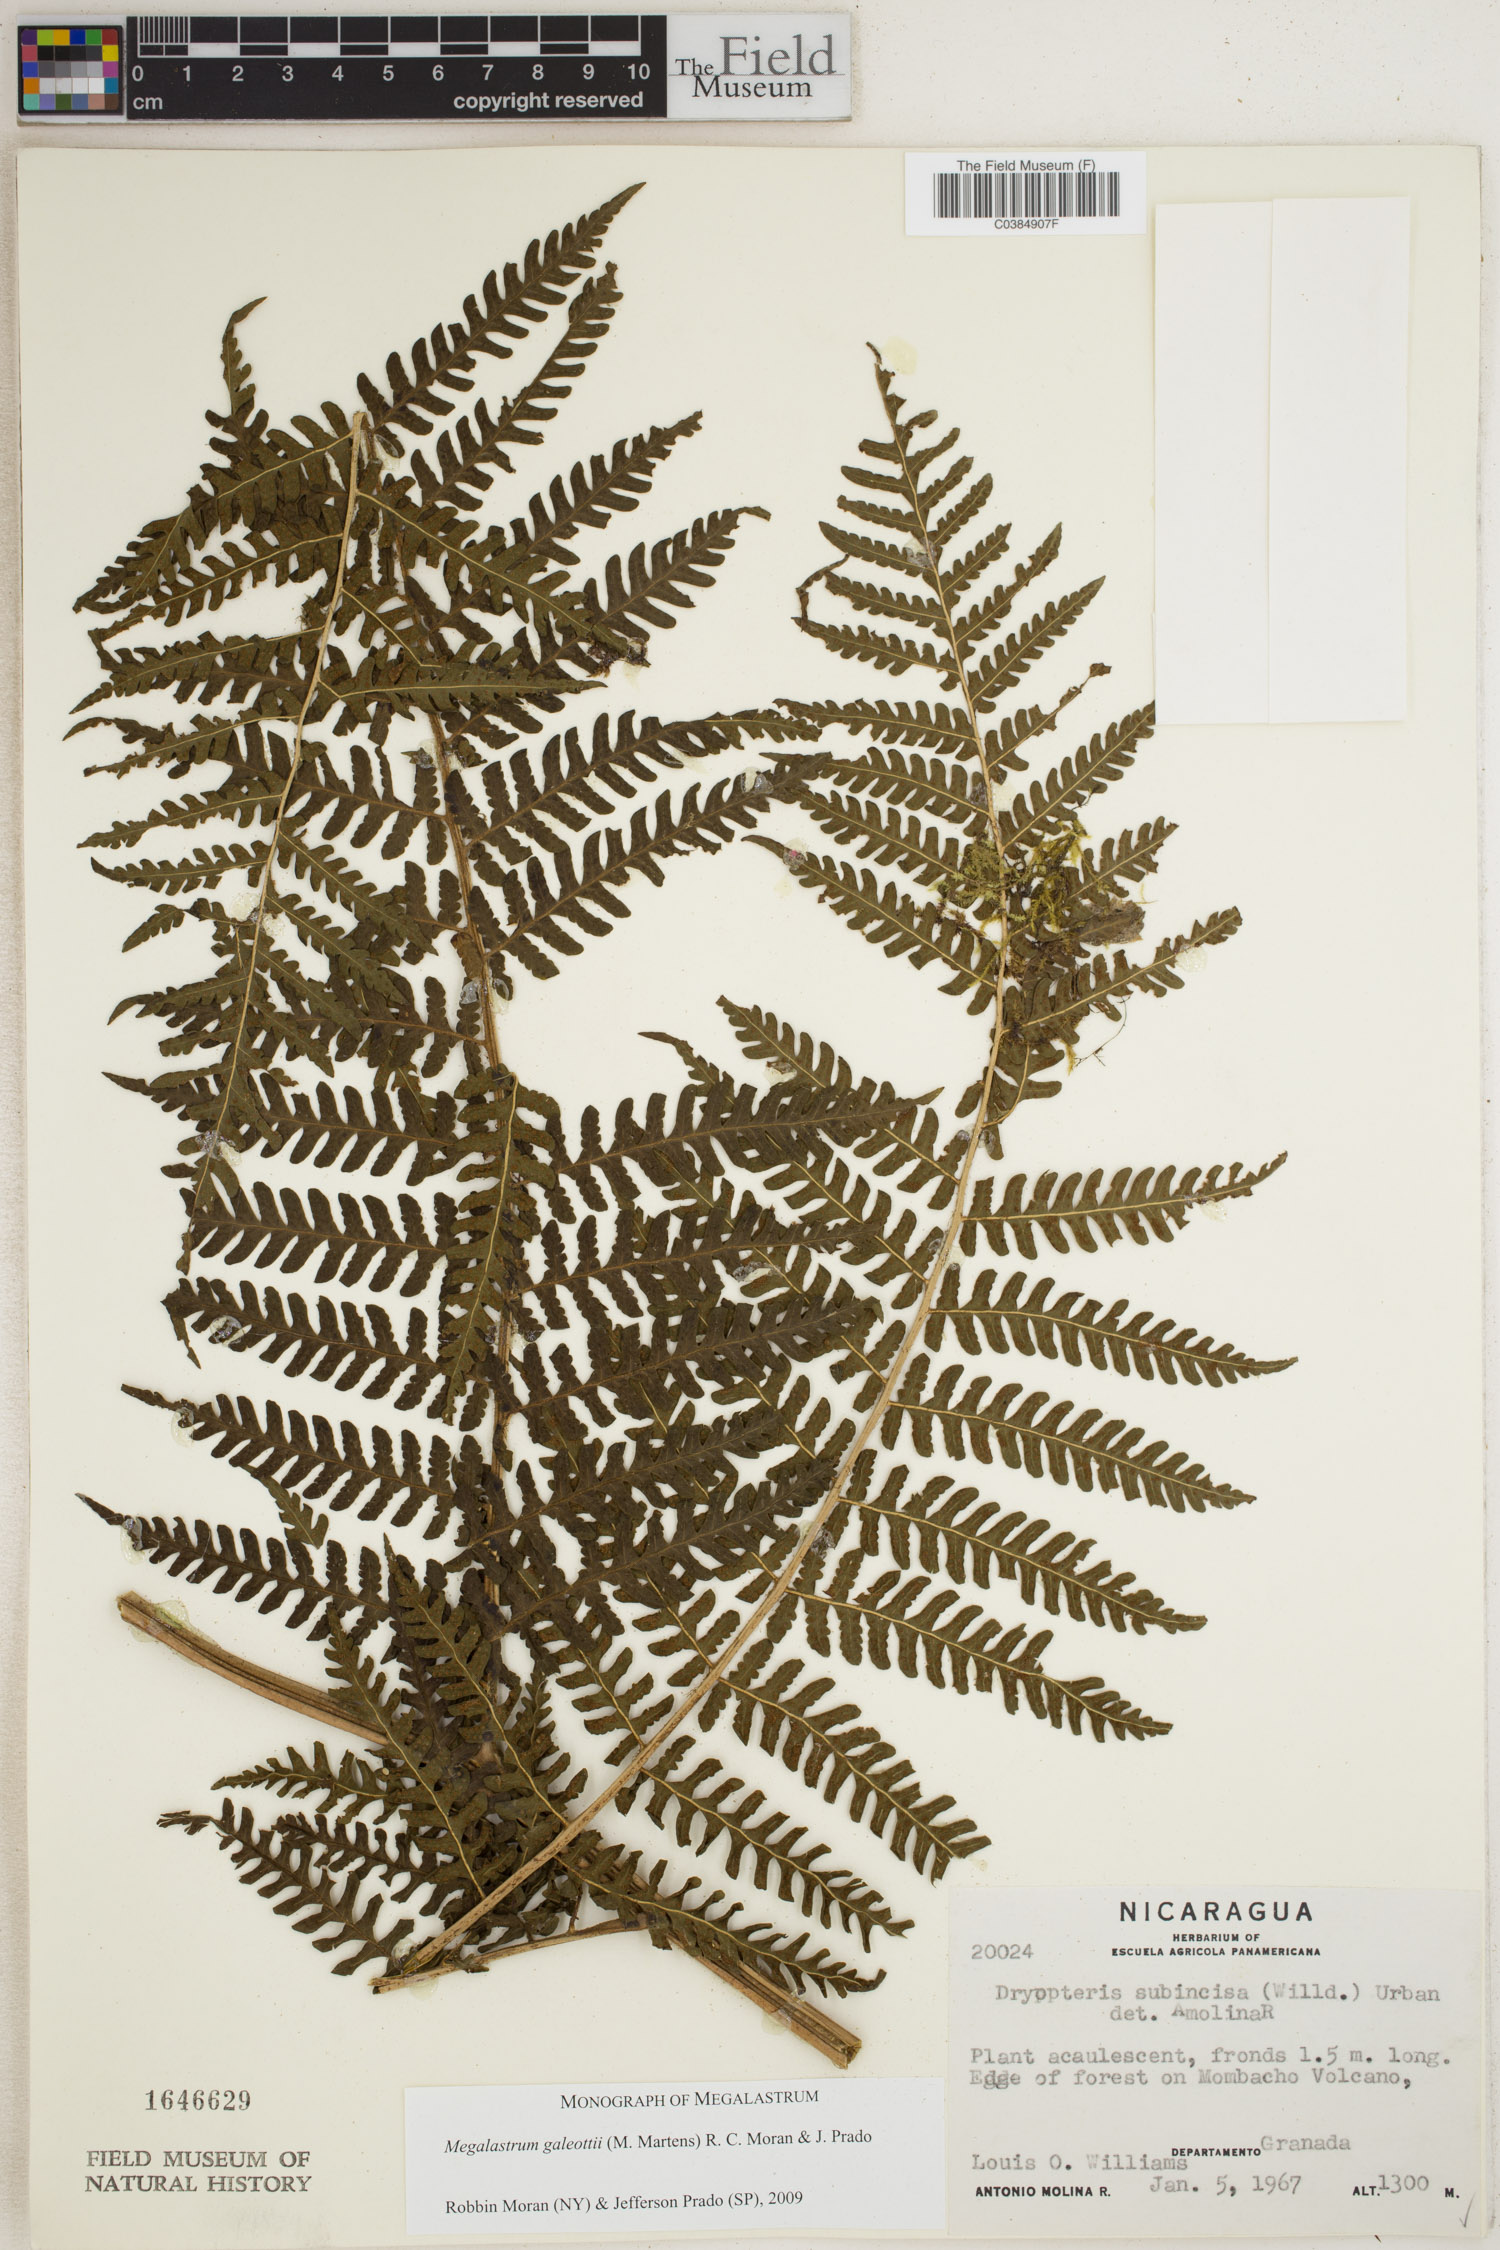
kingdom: Plantae
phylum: Tracheophyta
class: Polypodiopsida
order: Polypodiales
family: Dryopteridaceae
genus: Megalastrum
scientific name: Megalastrum galeottii
